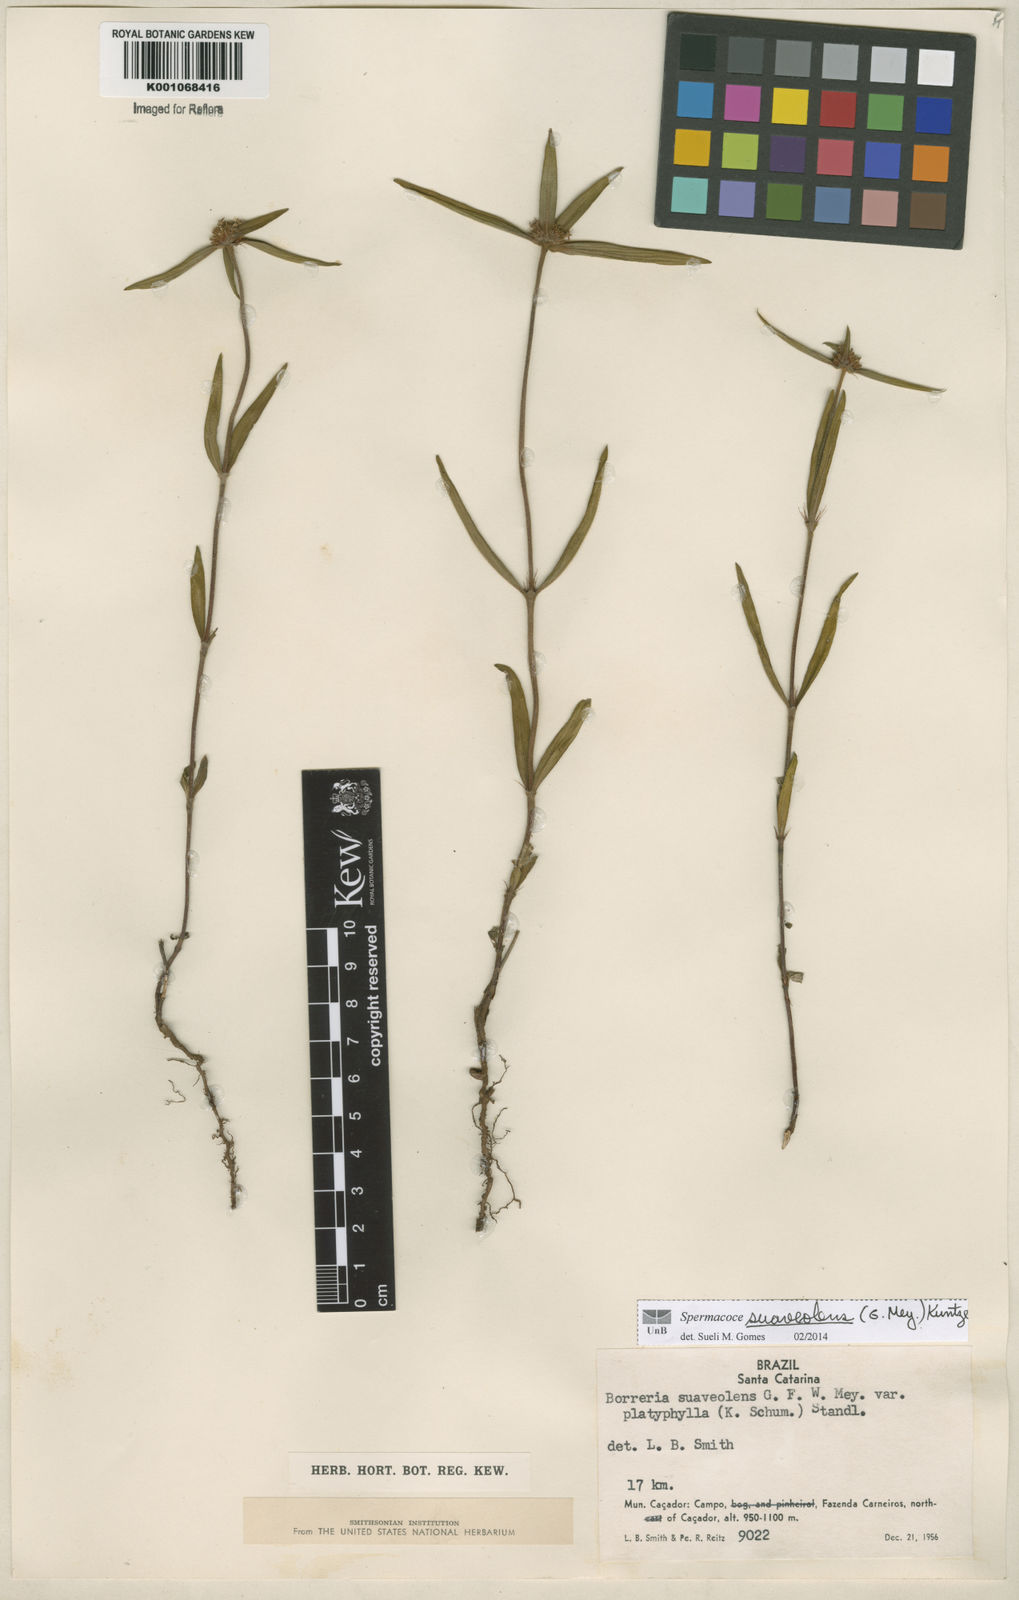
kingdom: Plantae
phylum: Tracheophyta
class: Magnoliopsida
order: Gentianales
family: Rubiaceae
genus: Spermacoce
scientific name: Spermacoce suaveolens
